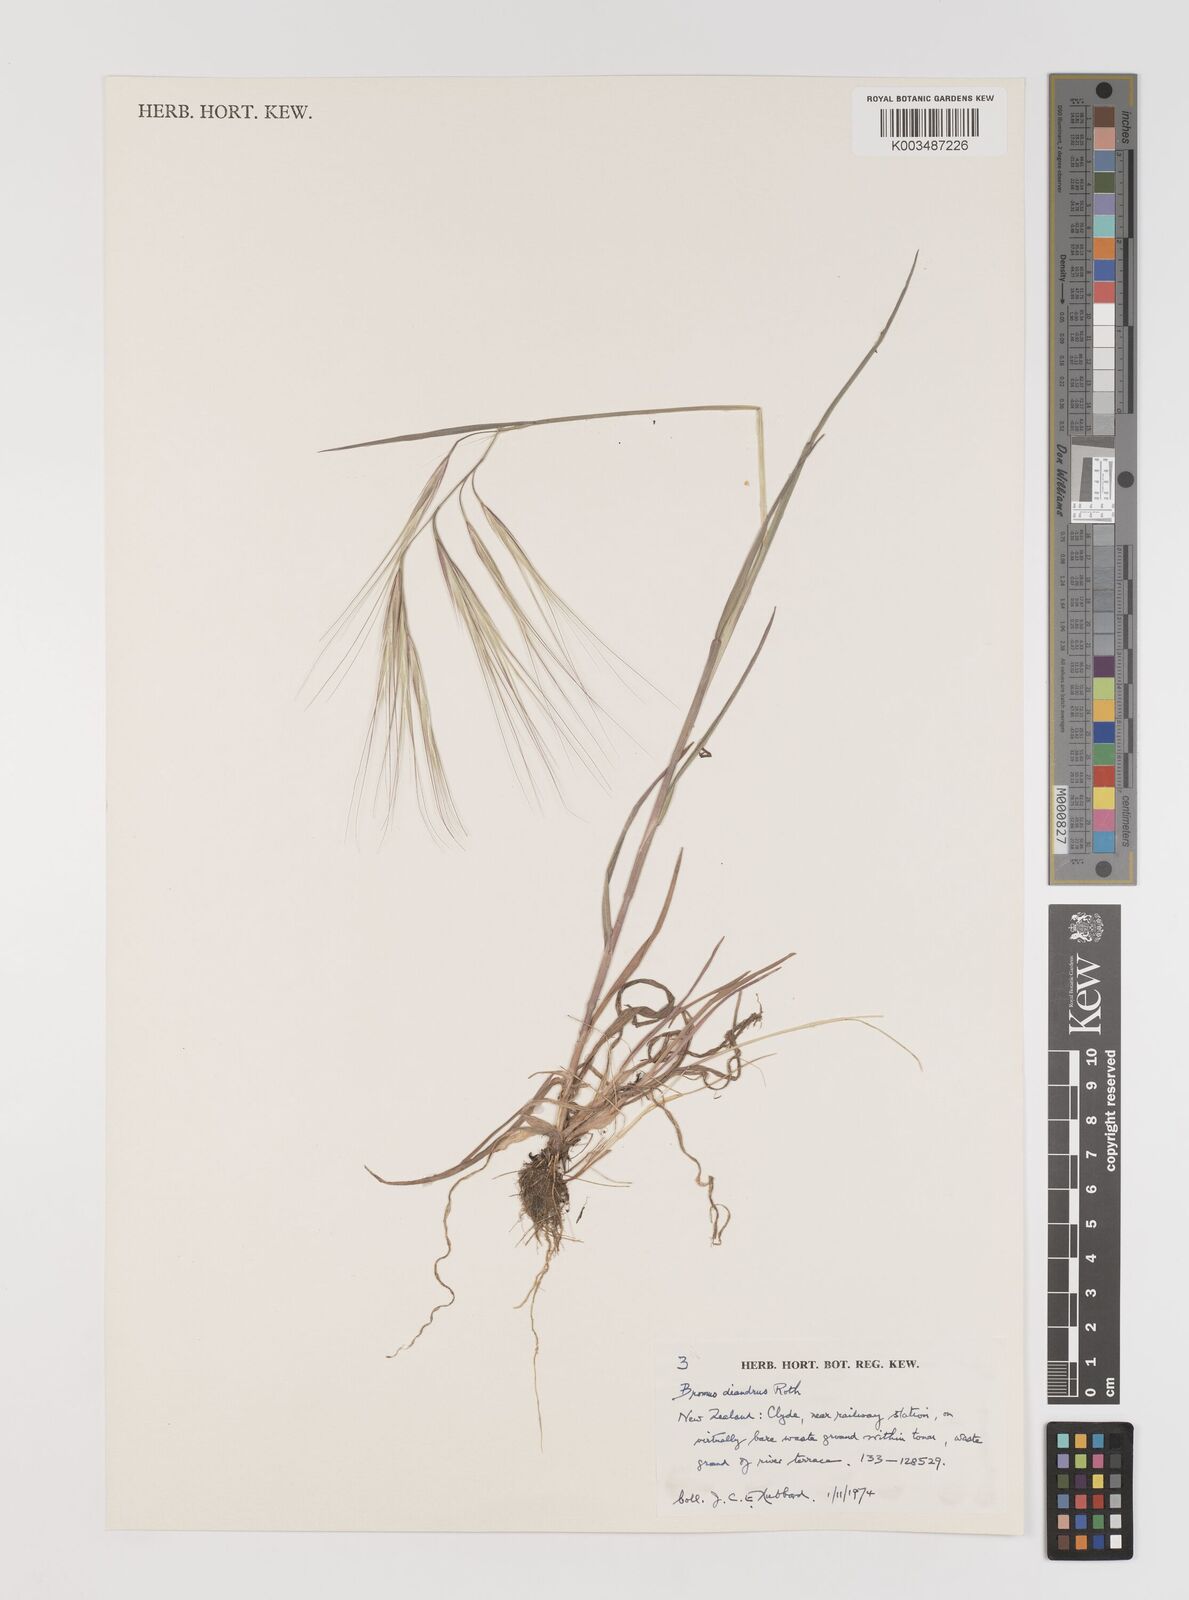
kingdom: Plantae
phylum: Tracheophyta
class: Liliopsida
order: Poales
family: Poaceae
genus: Bromus
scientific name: Bromus diandrus
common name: Ripgut brome
